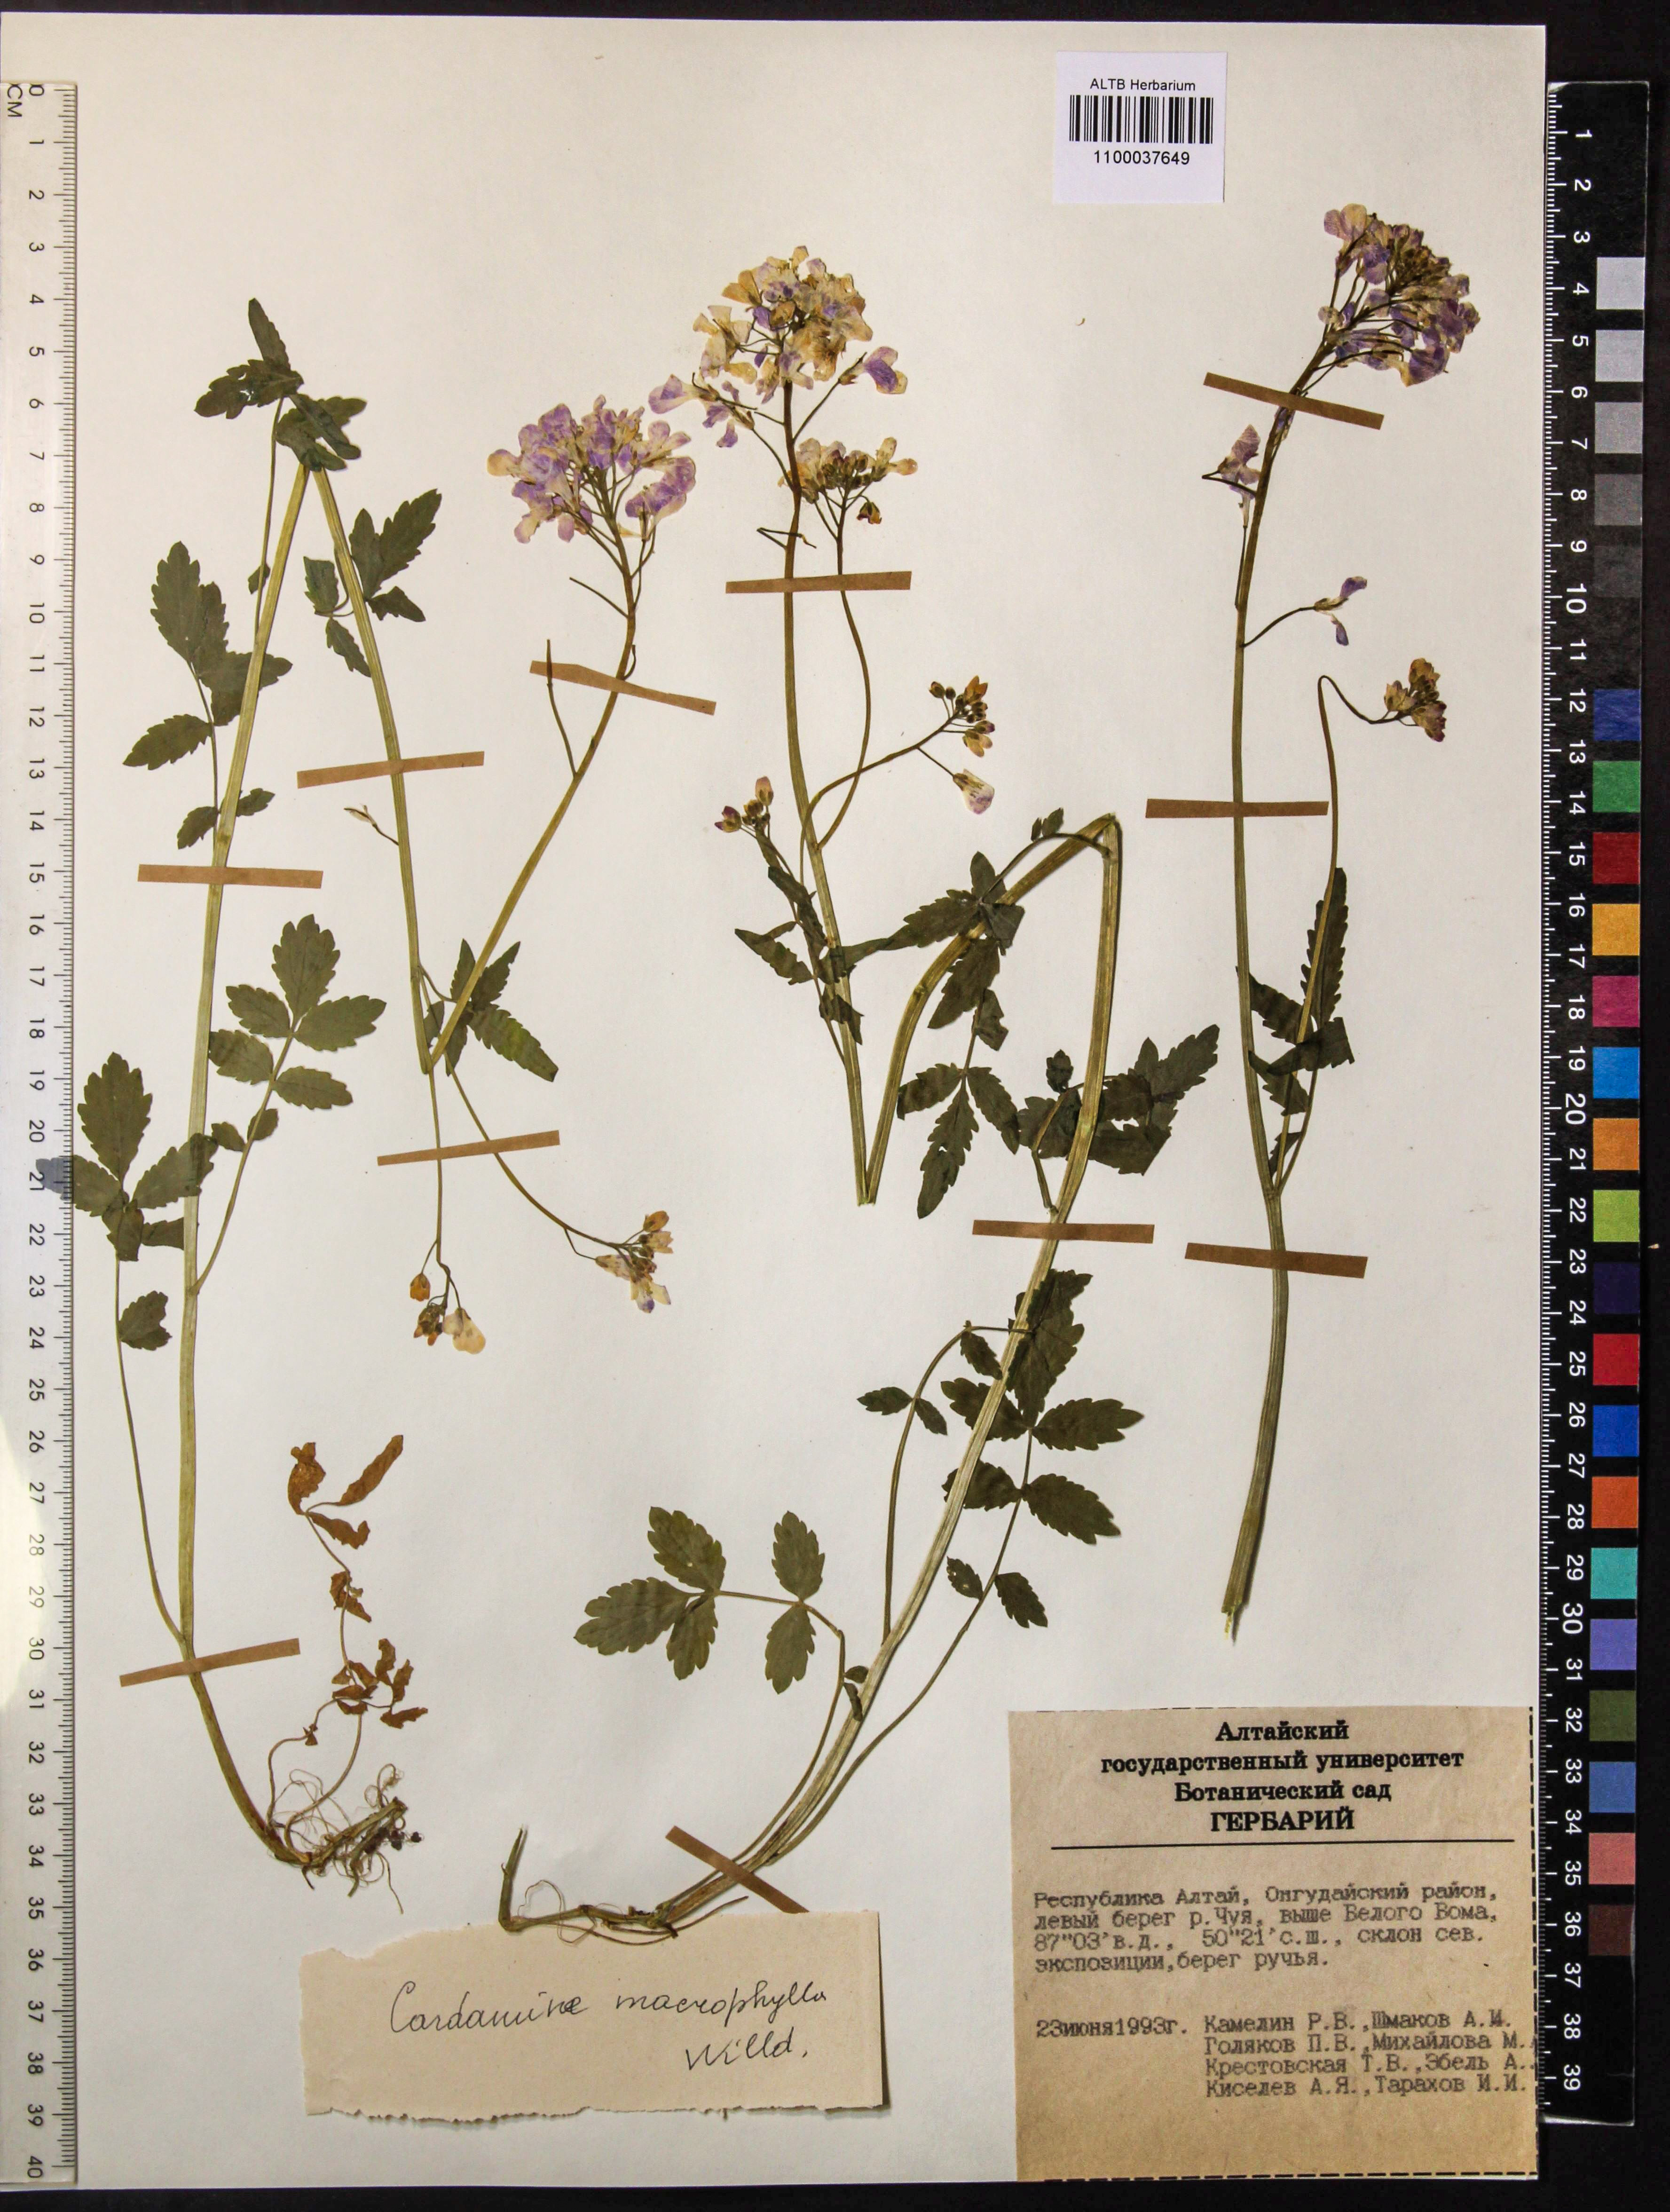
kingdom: Plantae
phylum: Tracheophyta
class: Magnoliopsida
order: Brassicales
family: Brassicaceae
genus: Cardamine
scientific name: Cardamine macrophylla
